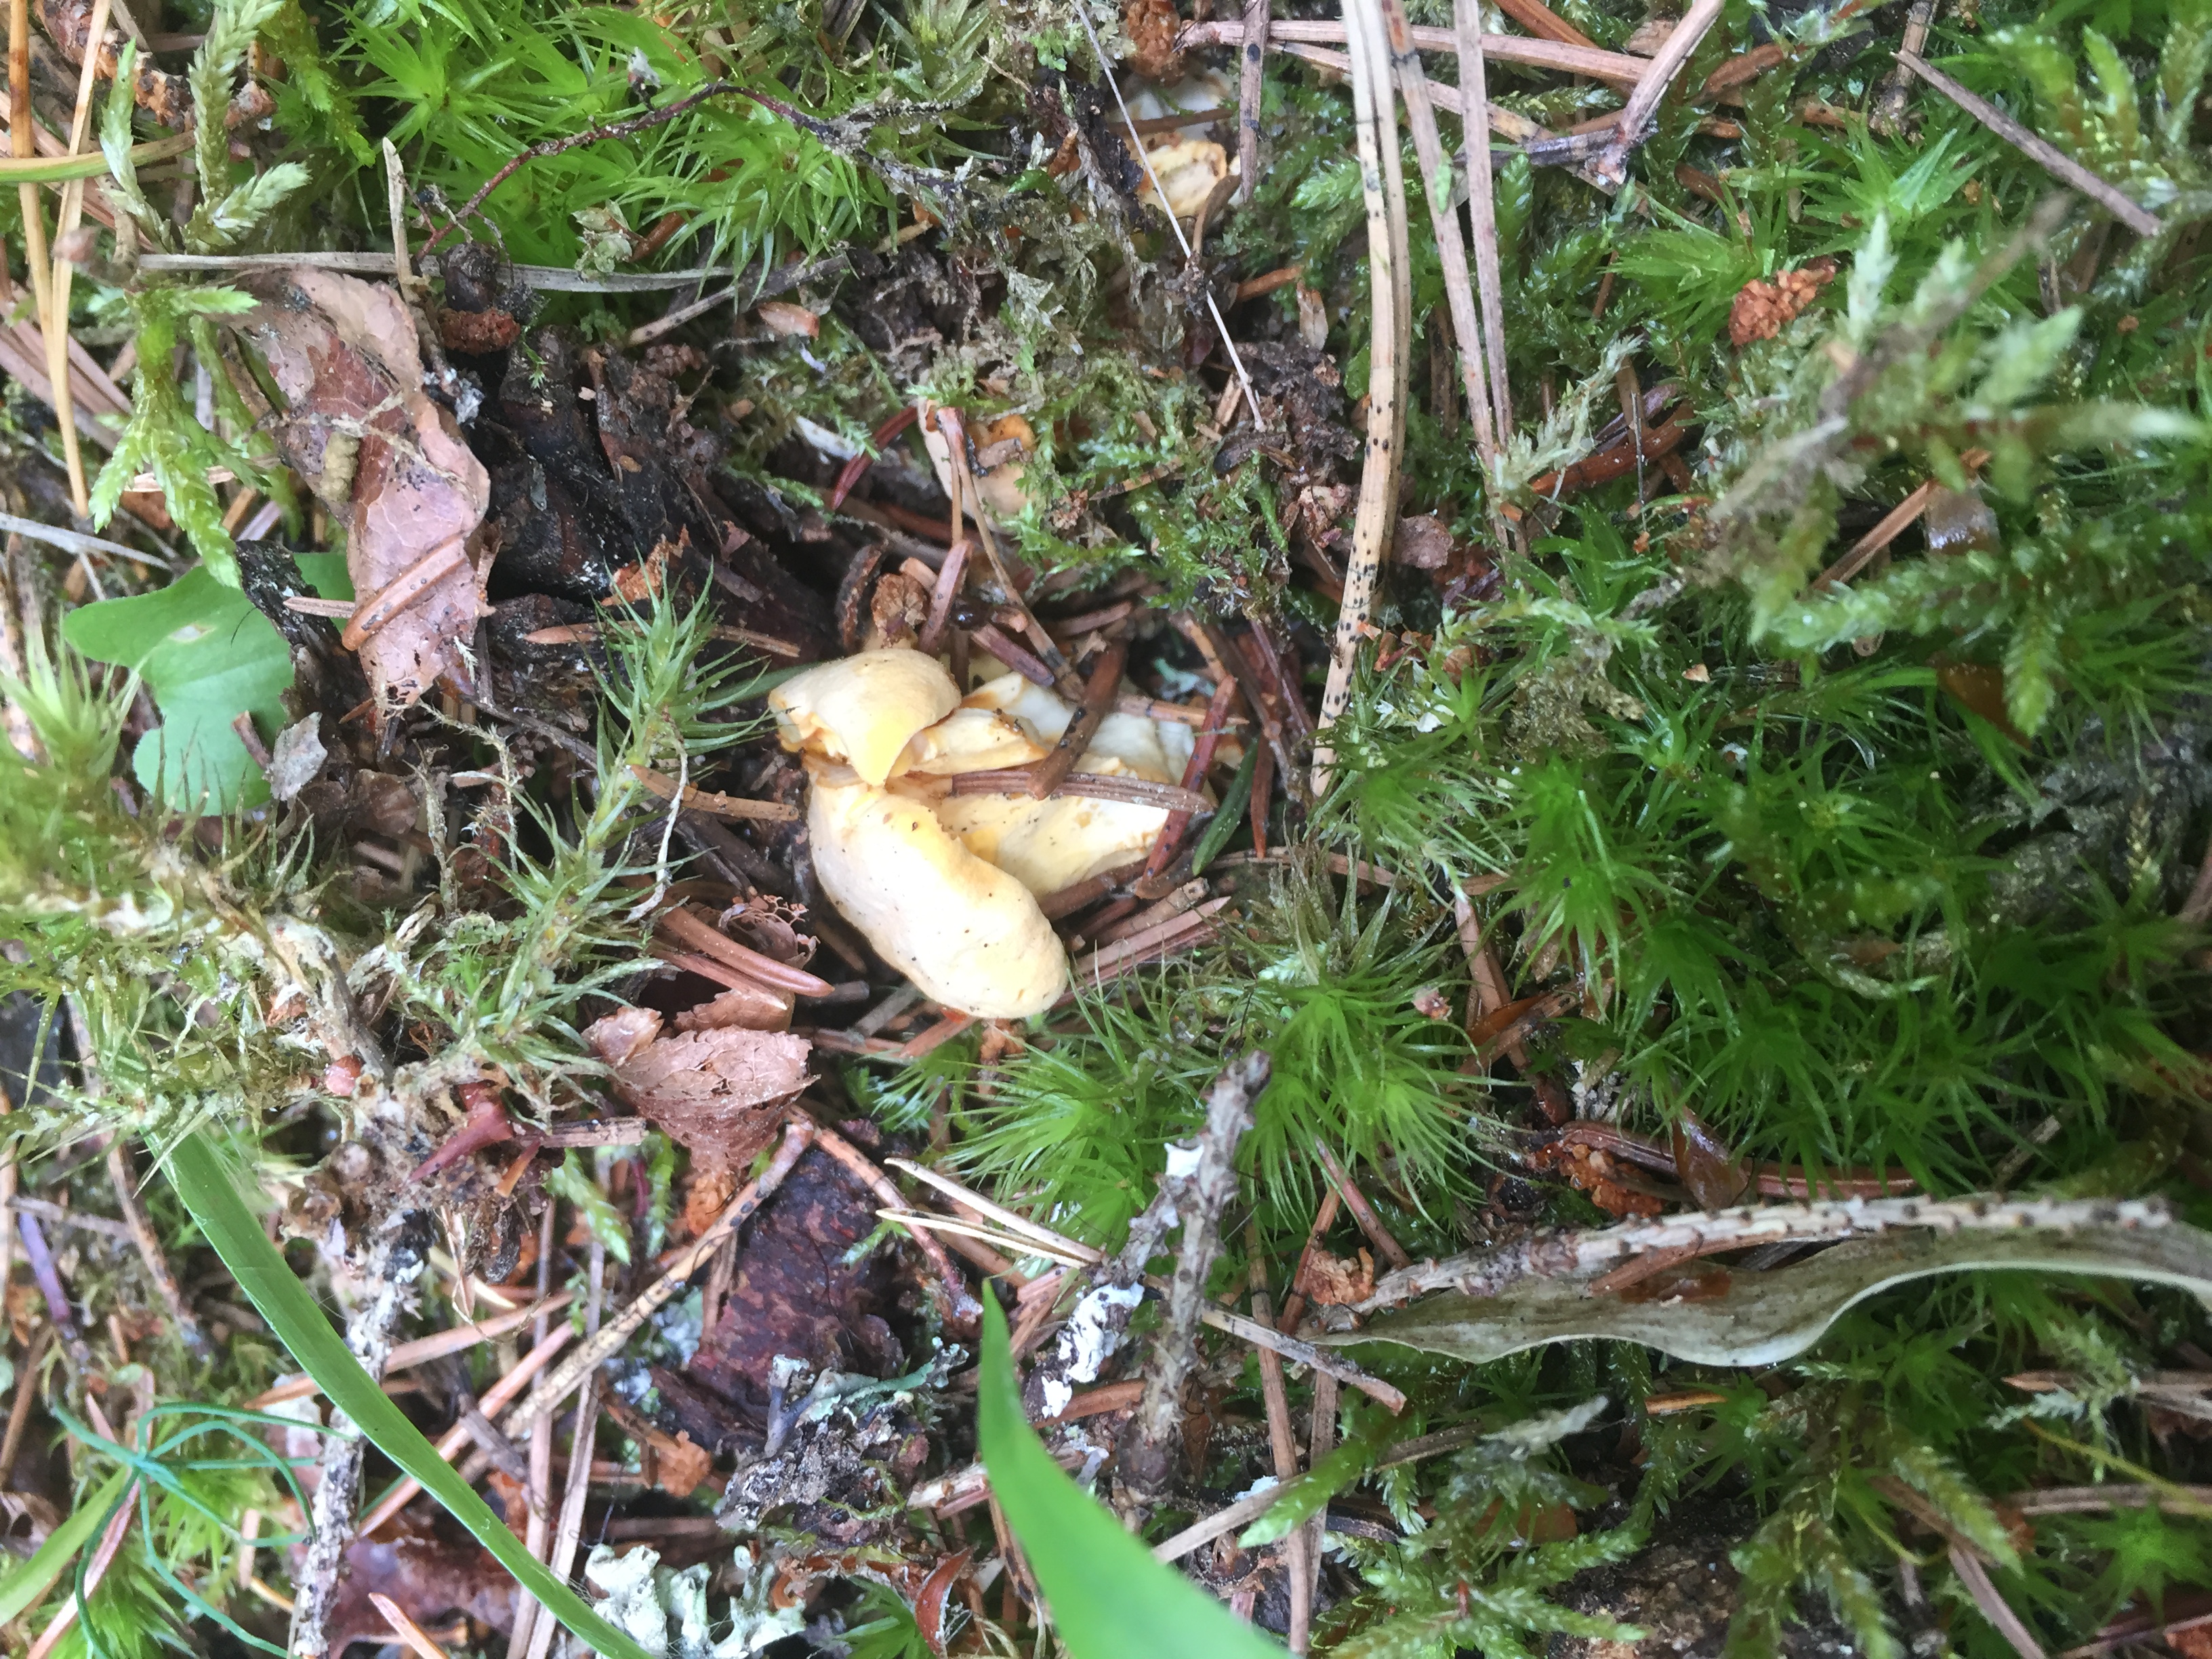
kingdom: Fungi
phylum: Basidiomycota
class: Agaricomycetes
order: Cantharellales
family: Hydnaceae
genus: Cantharellus
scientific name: Cantharellus cibarius
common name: Chanterelle
